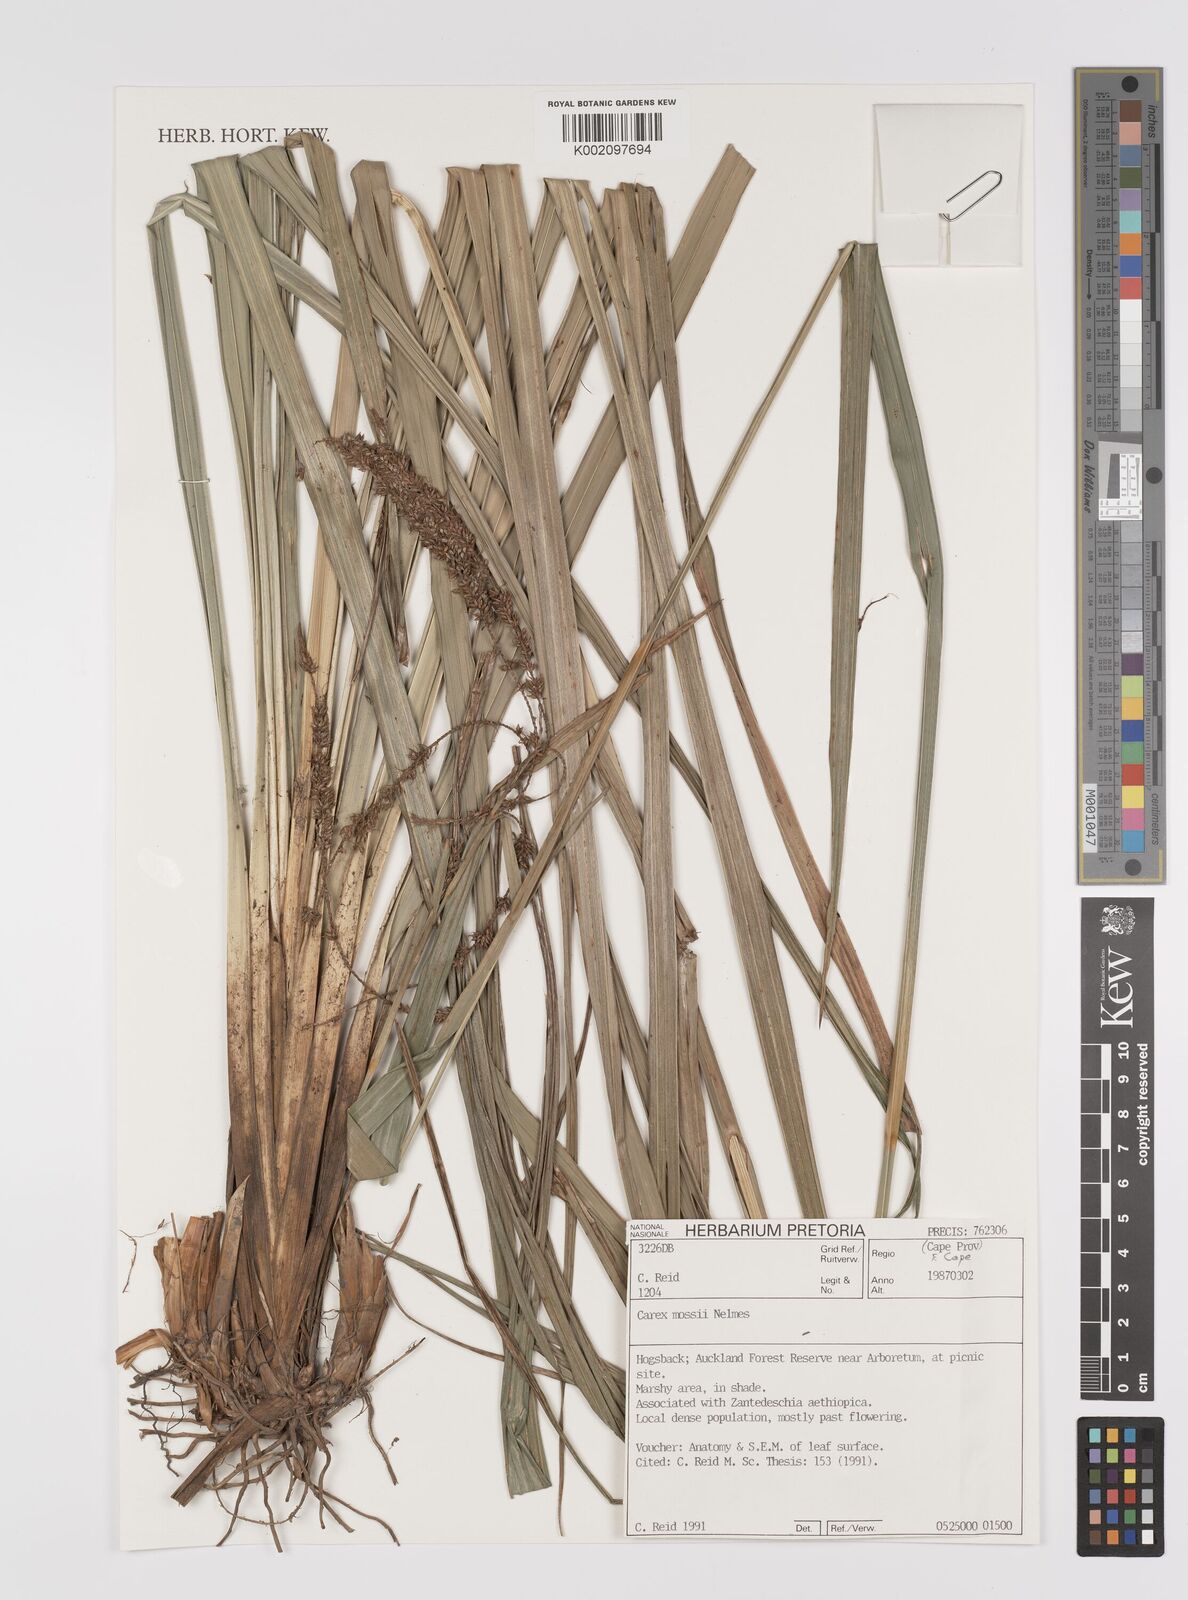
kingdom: Plantae
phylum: Tracheophyta
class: Liliopsida
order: Poales
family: Cyperaceae
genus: Carex
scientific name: Carex bequaertii
